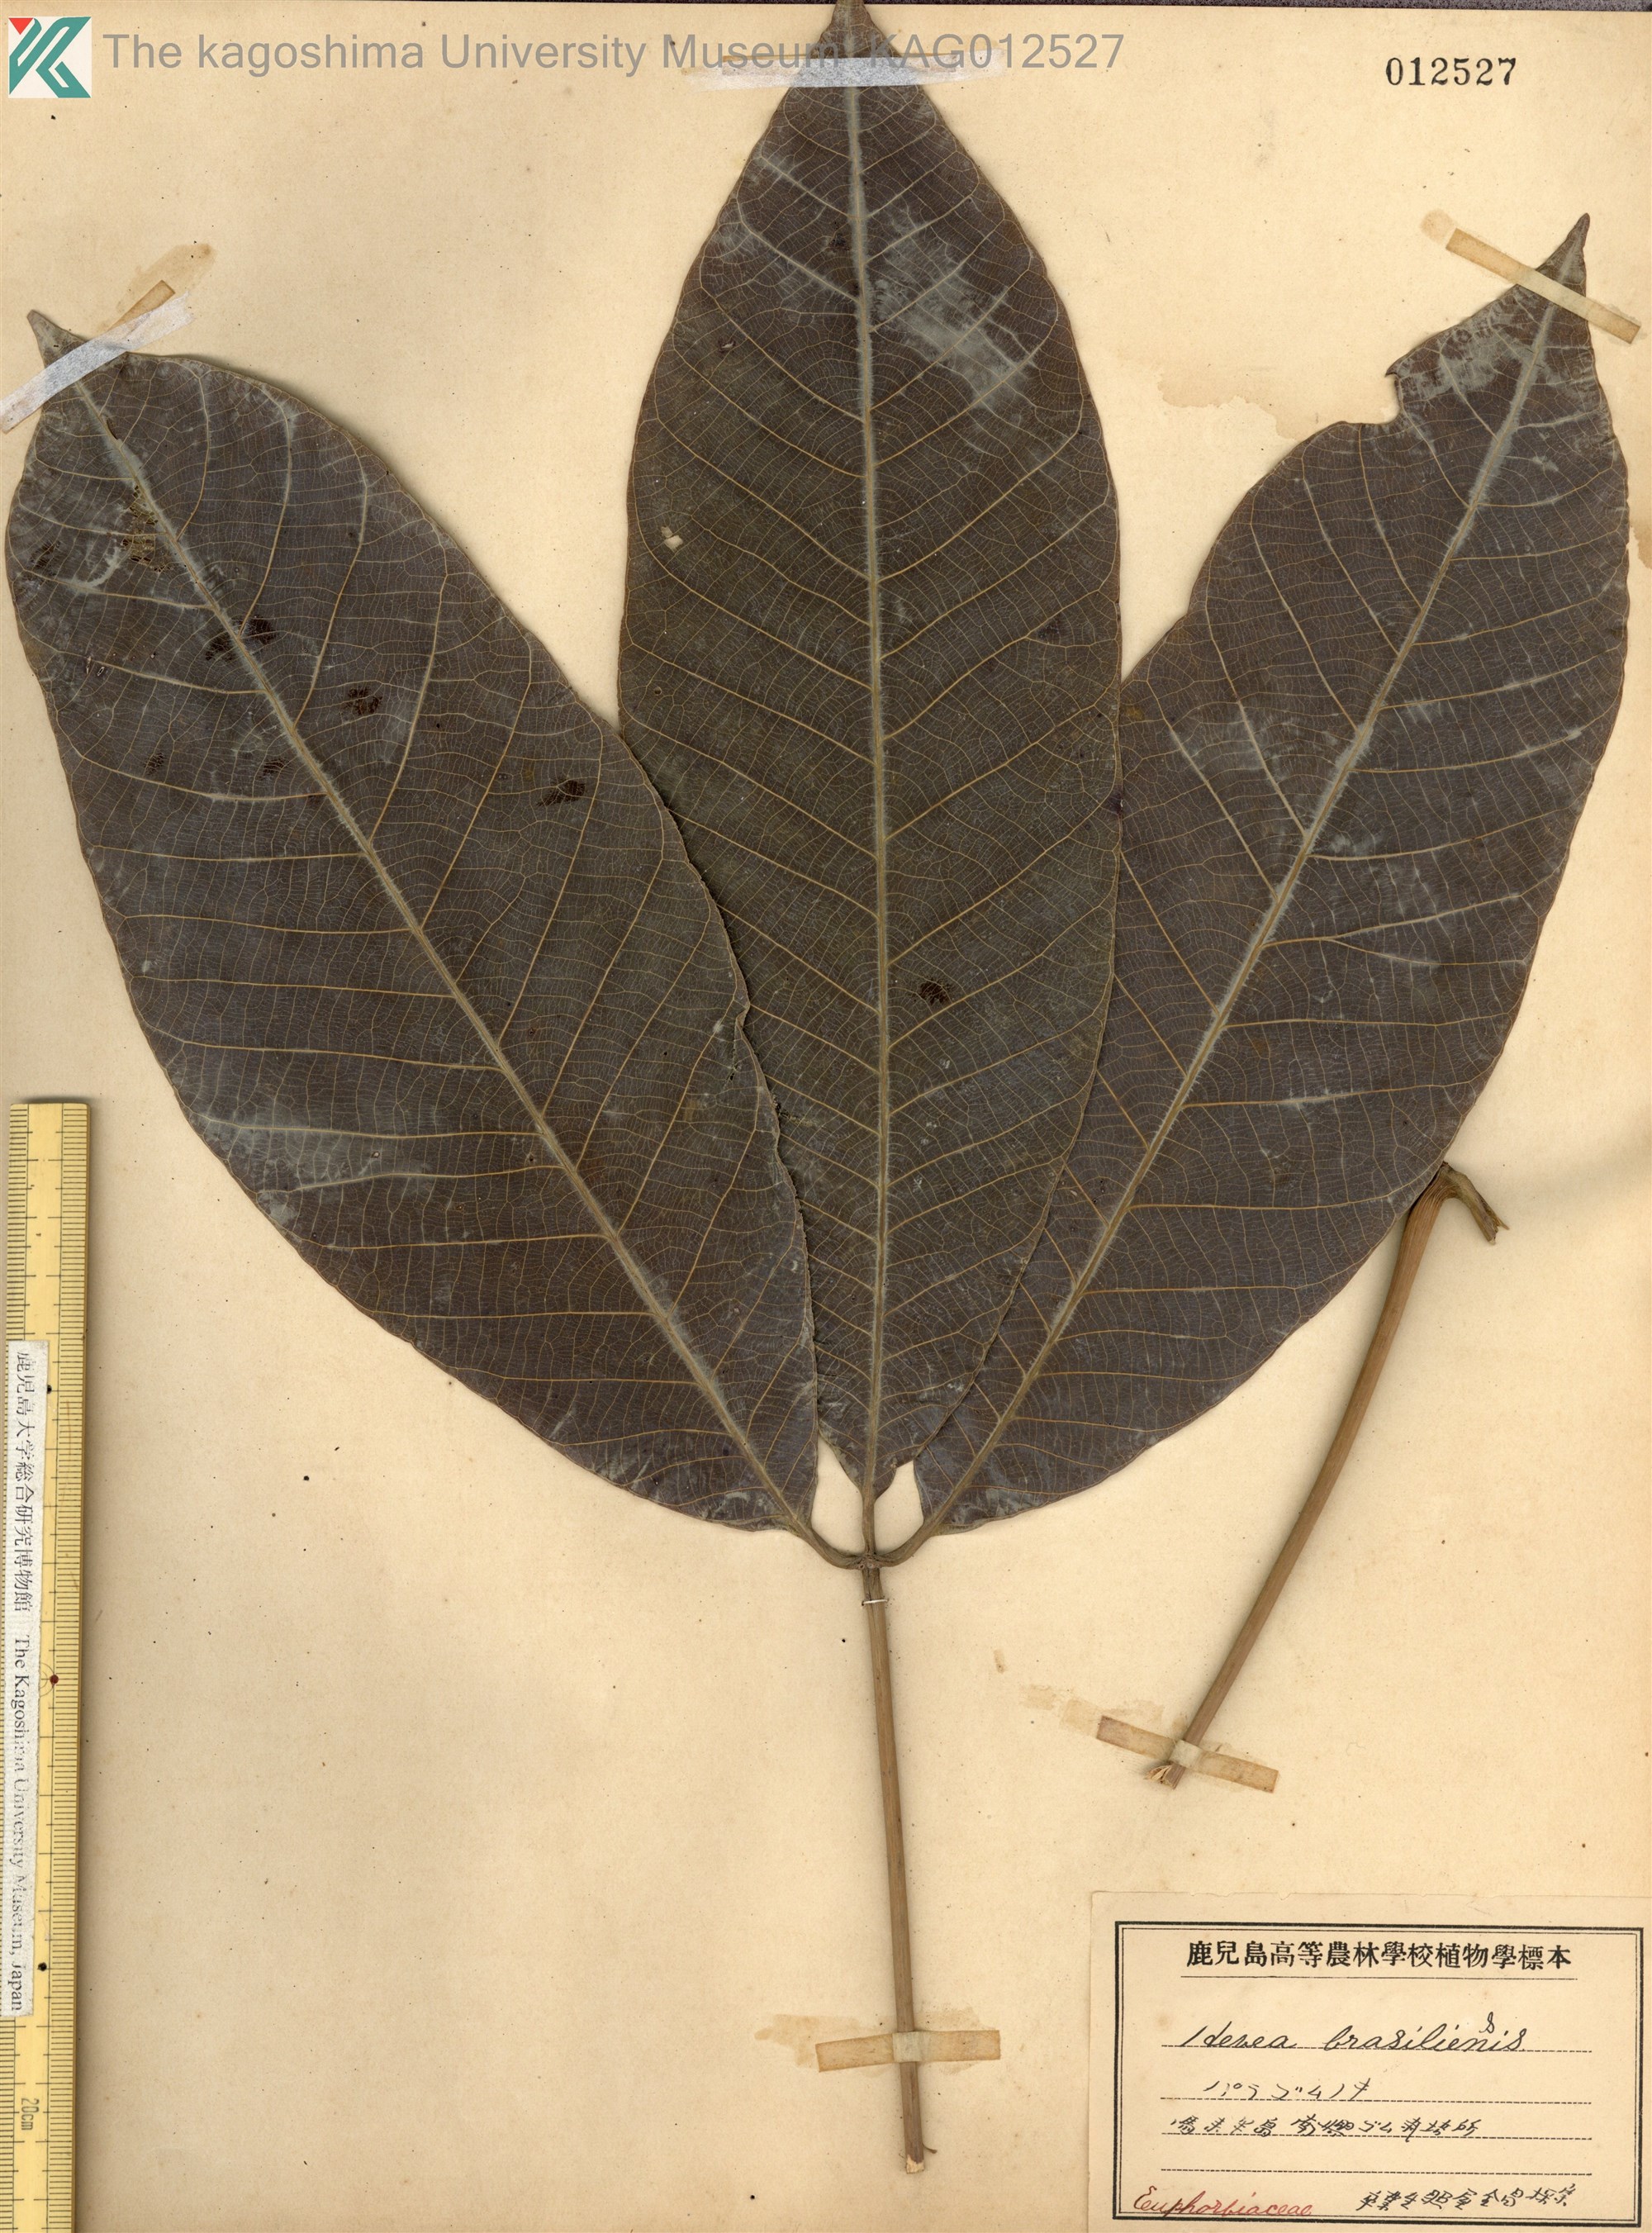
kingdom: Plantae
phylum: Tracheophyta
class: Magnoliopsida
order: Malpighiales
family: Euphorbiaceae
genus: Hevea
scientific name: Hevea brasiliensis
